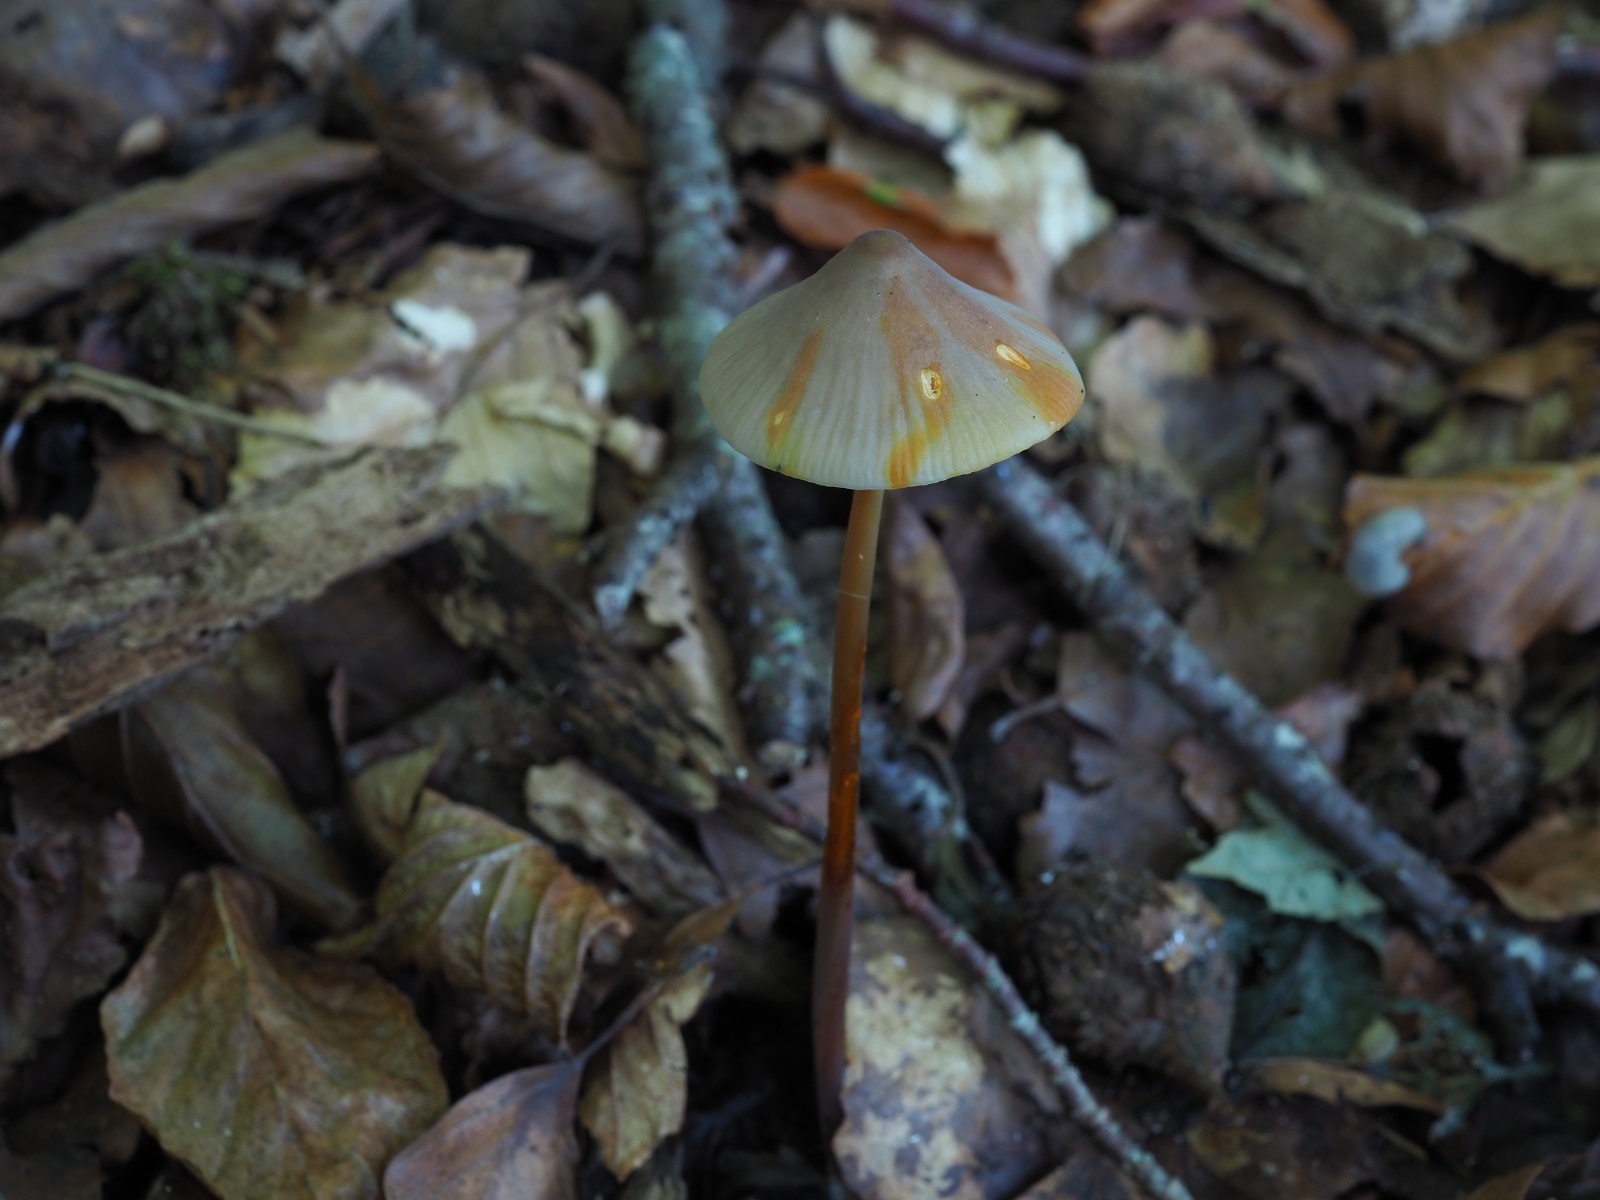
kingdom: Fungi
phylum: Basidiomycota
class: Agaricomycetes
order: Agaricales
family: Mycenaceae
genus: Mycena
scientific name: Mycena crocata
